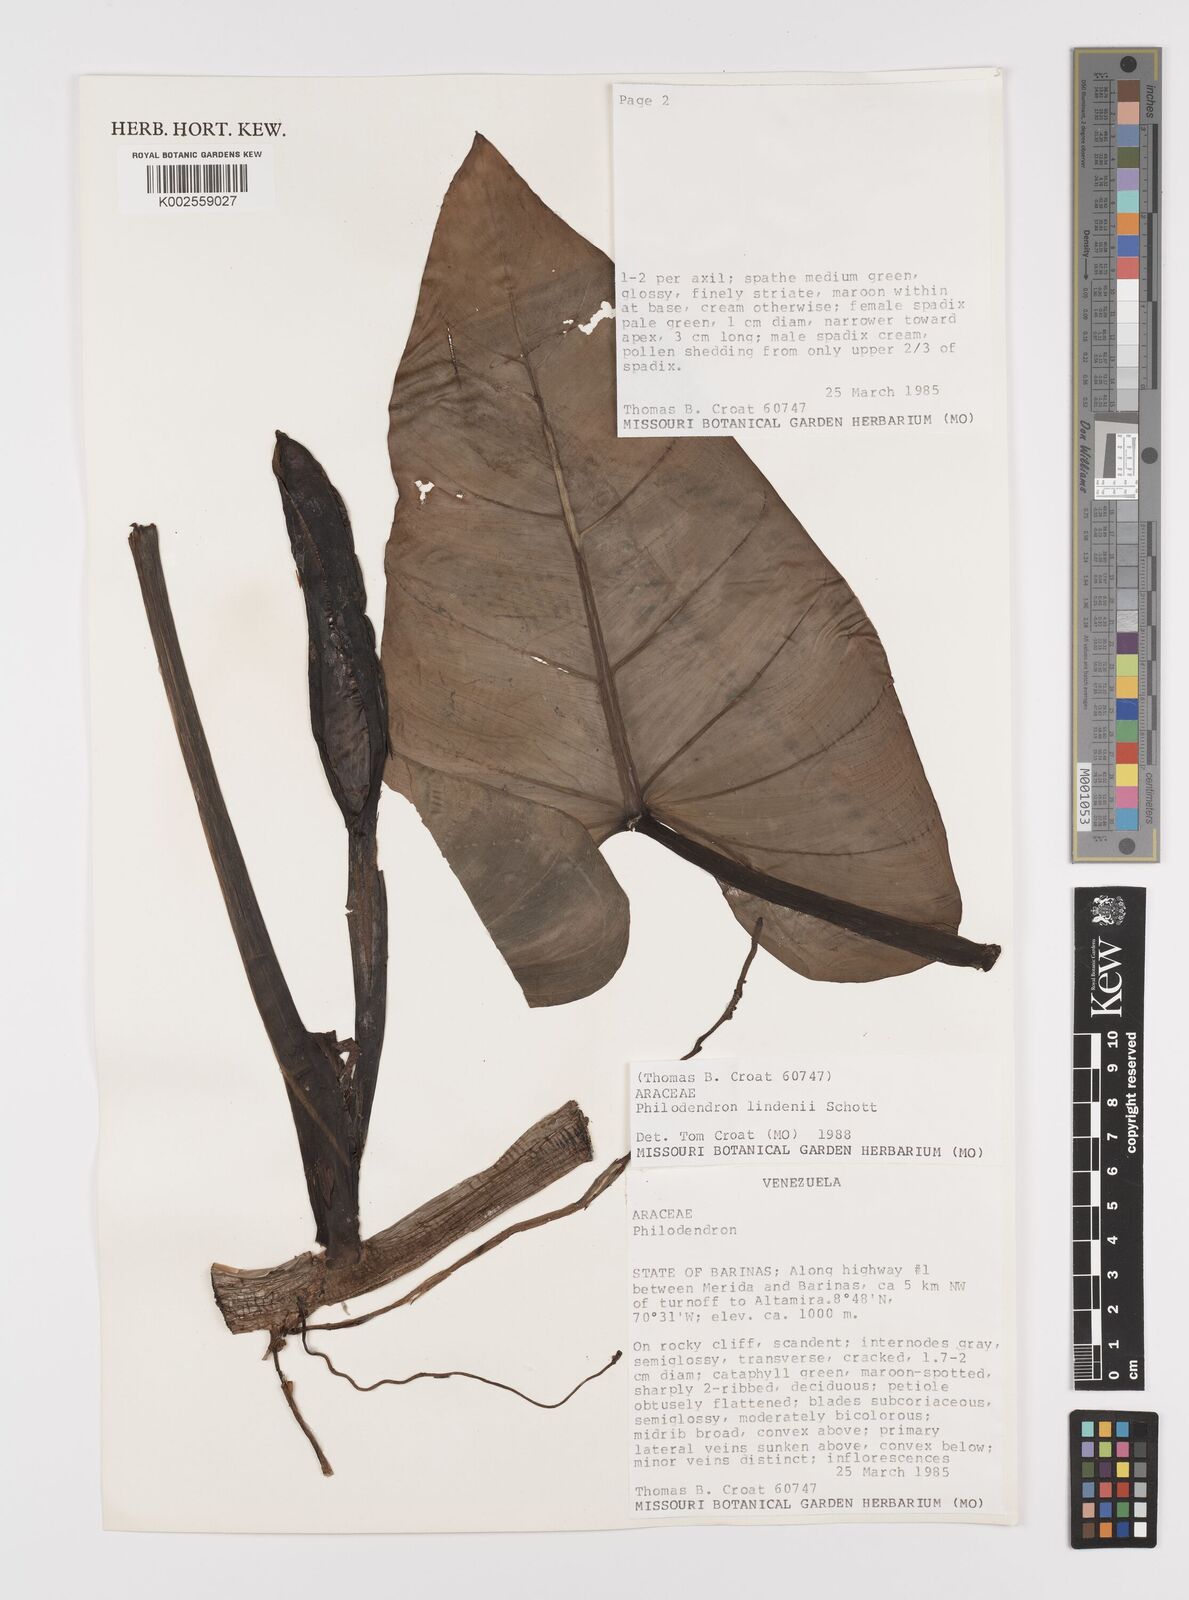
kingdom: Plantae
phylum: Tracheophyta
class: Liliopsida
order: Alismatales
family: Araceae
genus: Philodendron
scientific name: Philodendron lindenii
